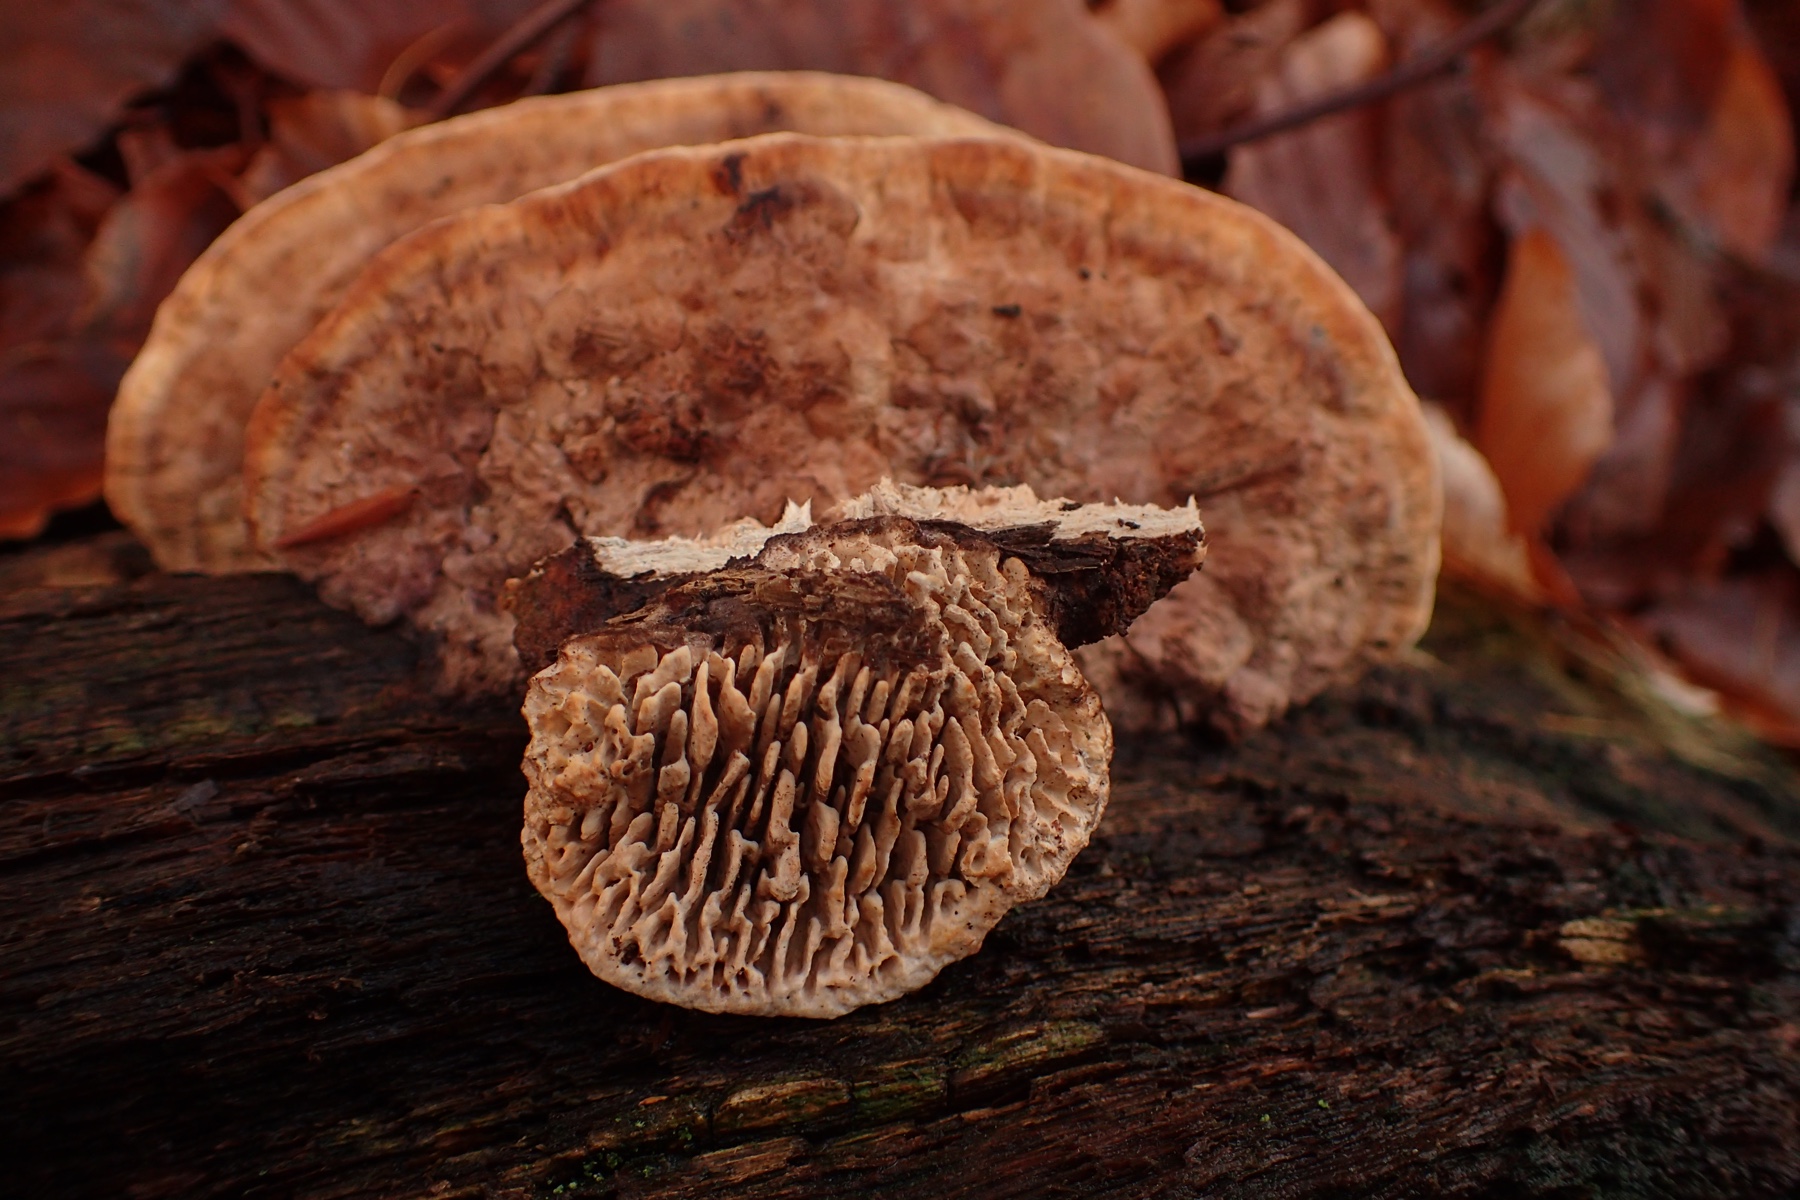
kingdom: Fungi
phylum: Basidiomycota
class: Agaricomycetes
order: Polyporales
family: Fomitopsidaceae
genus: Daedalea
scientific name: Daedalea quercina
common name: ege-labyrintsvamp
